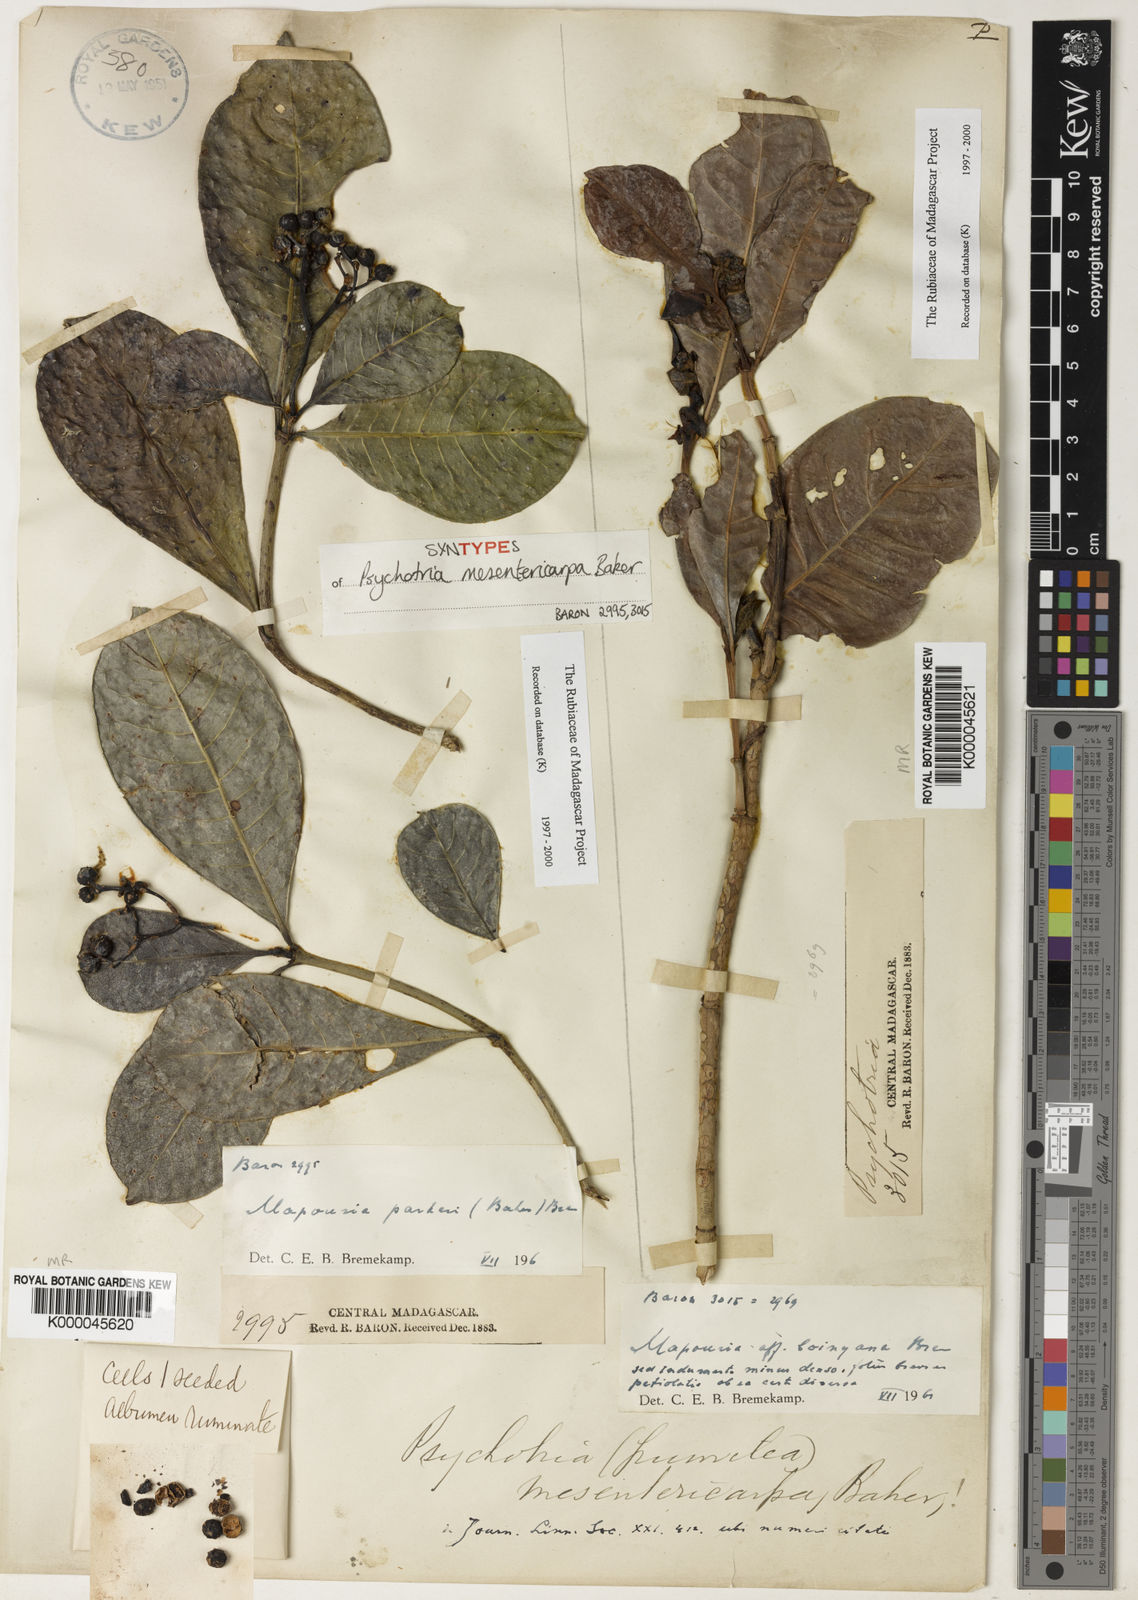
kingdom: Plantae
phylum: Tracheophyta
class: Magnoliopsida
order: Gentianales
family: Rubiaceae
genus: Psychotria
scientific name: Psychotria mesentericarpa
